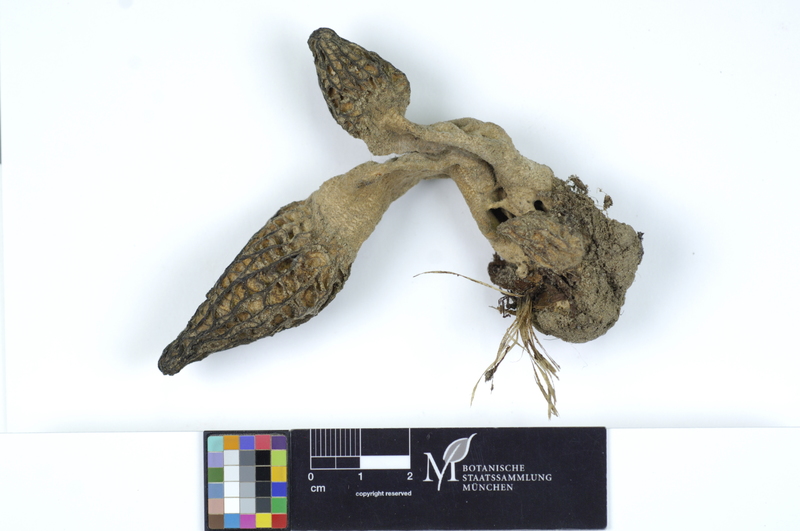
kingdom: Fungi
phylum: Ascomycota
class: Pezizomycetes
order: Pezizales
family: Morchellaceae
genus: Morchella
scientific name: Morchella costata
